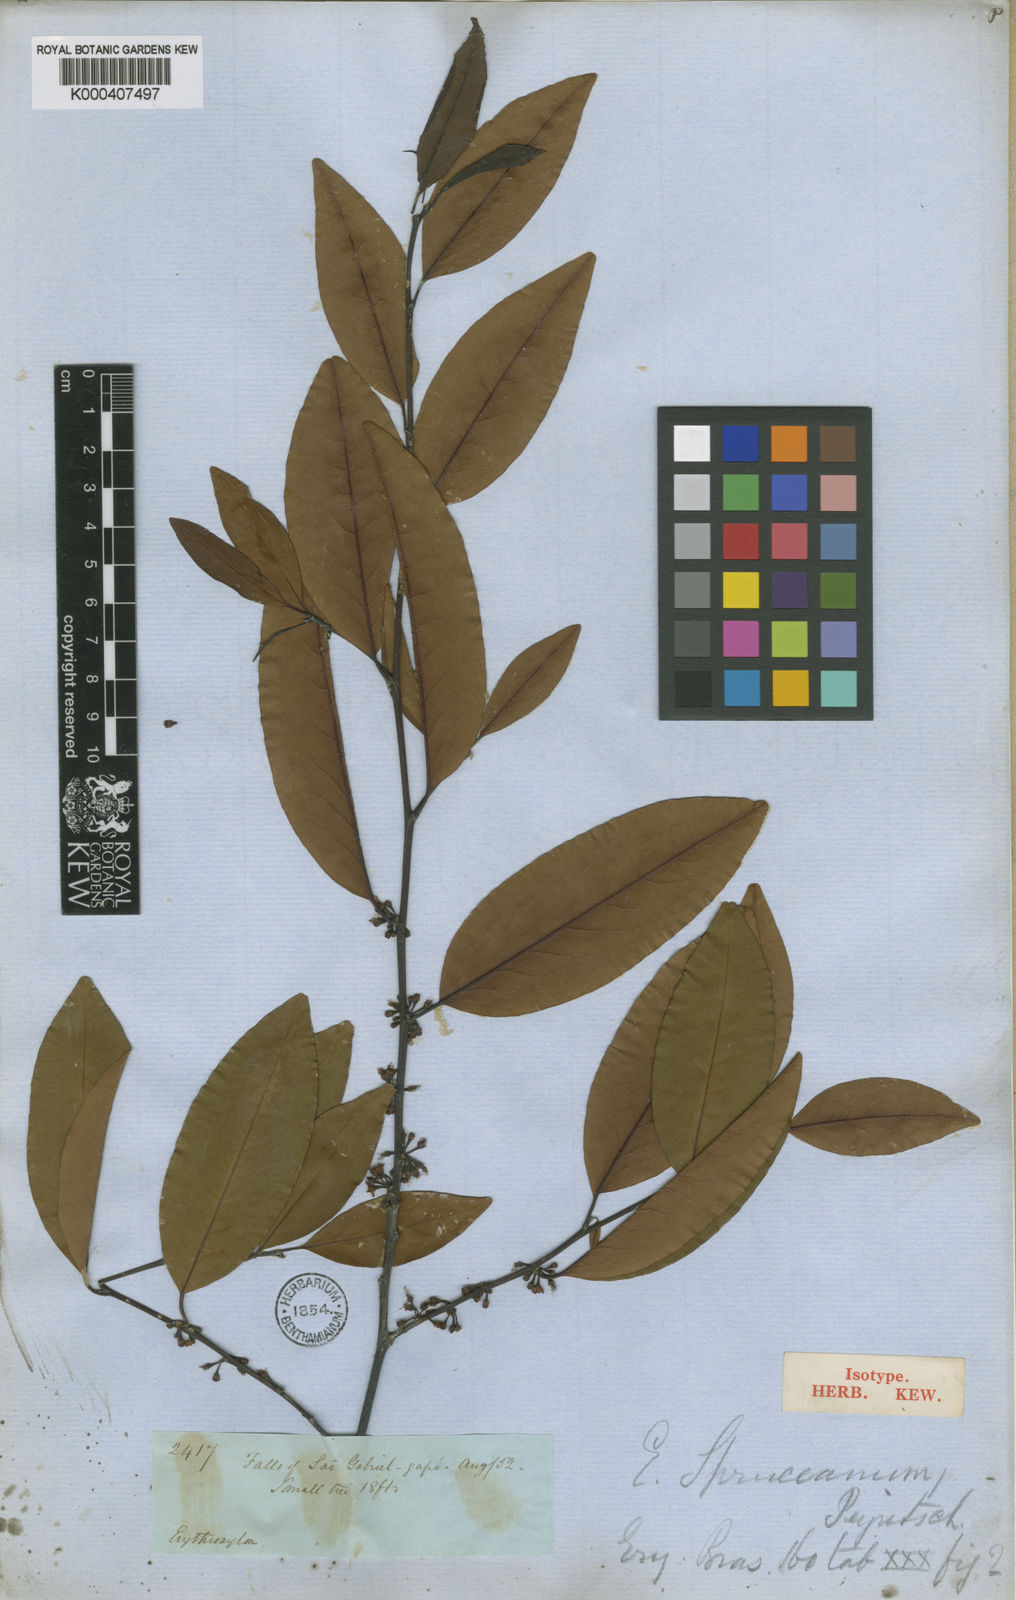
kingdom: Plantae
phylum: Tracheophyta
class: Magnoliopsida
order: Malpighiales
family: Erythroxylaceae
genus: Erythroxylum
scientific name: Erythroxylum spruceanum
